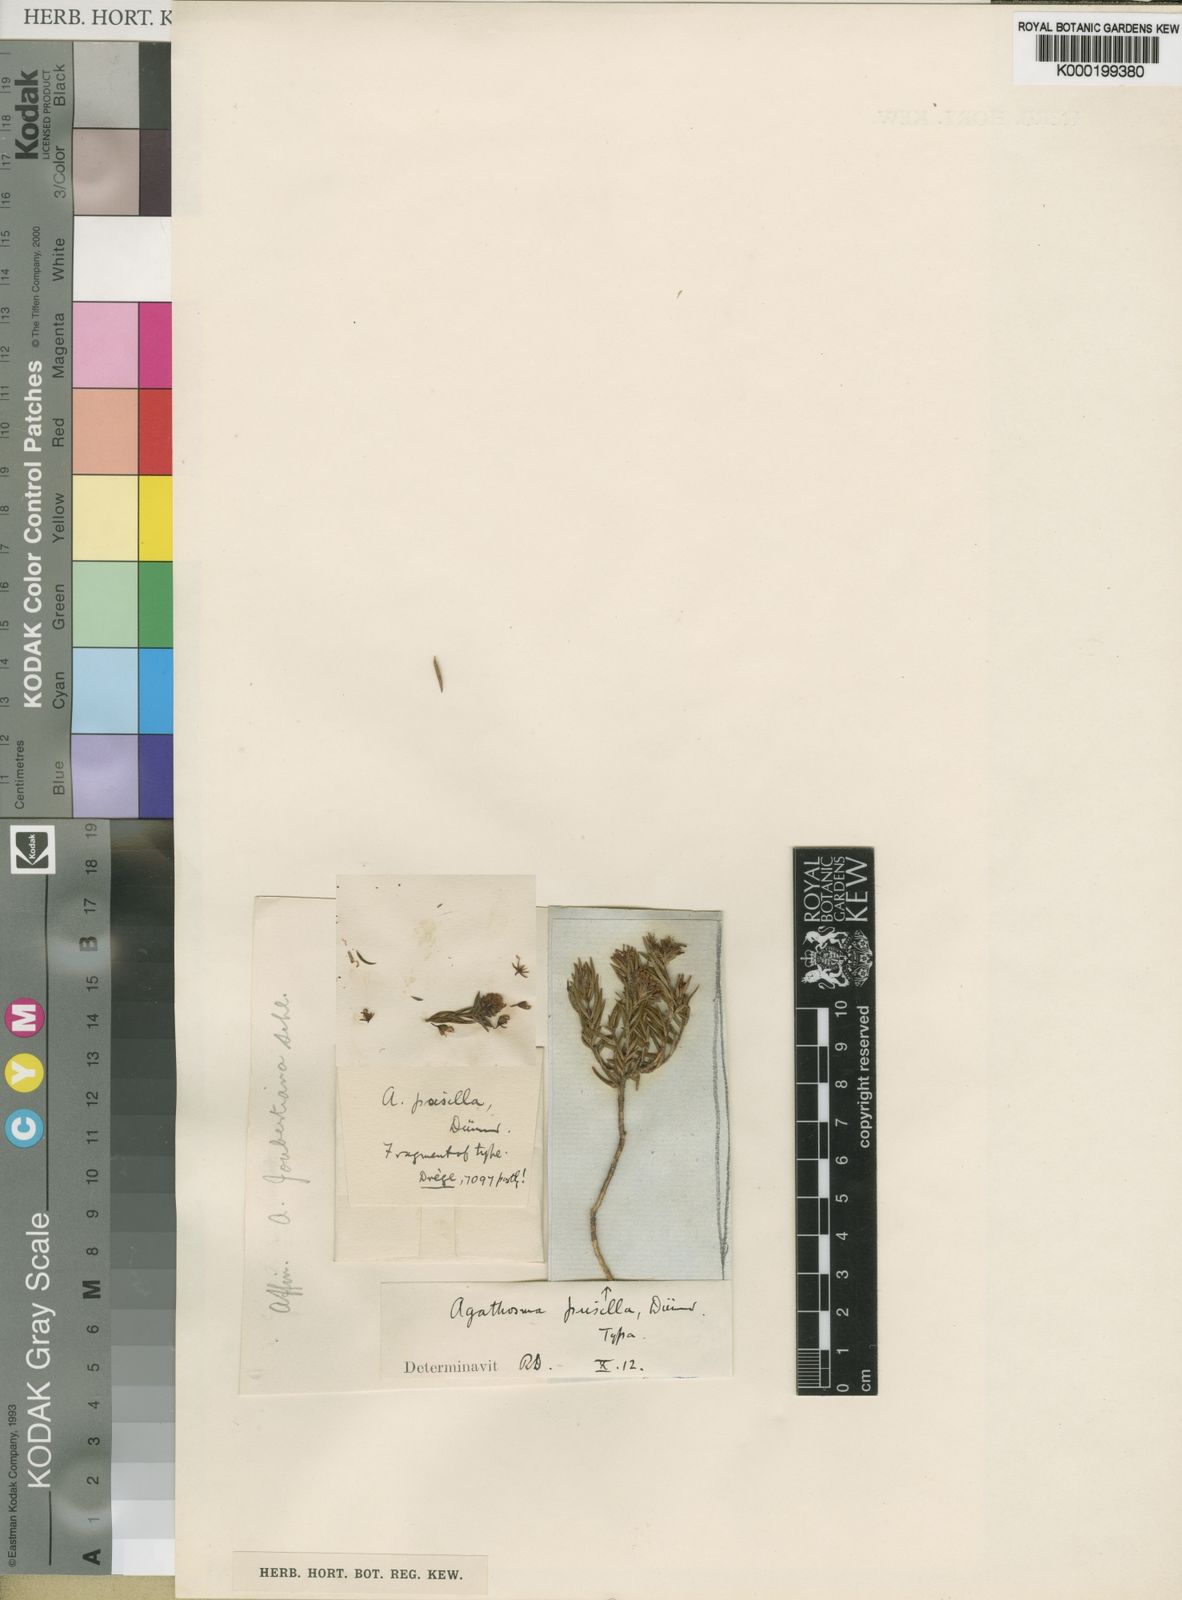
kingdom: Plantae
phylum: Tracheophyta
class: Magnoliopsida
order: Sapindales
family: Rutaceae
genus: Agathosma
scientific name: Agathosma lancifolia
